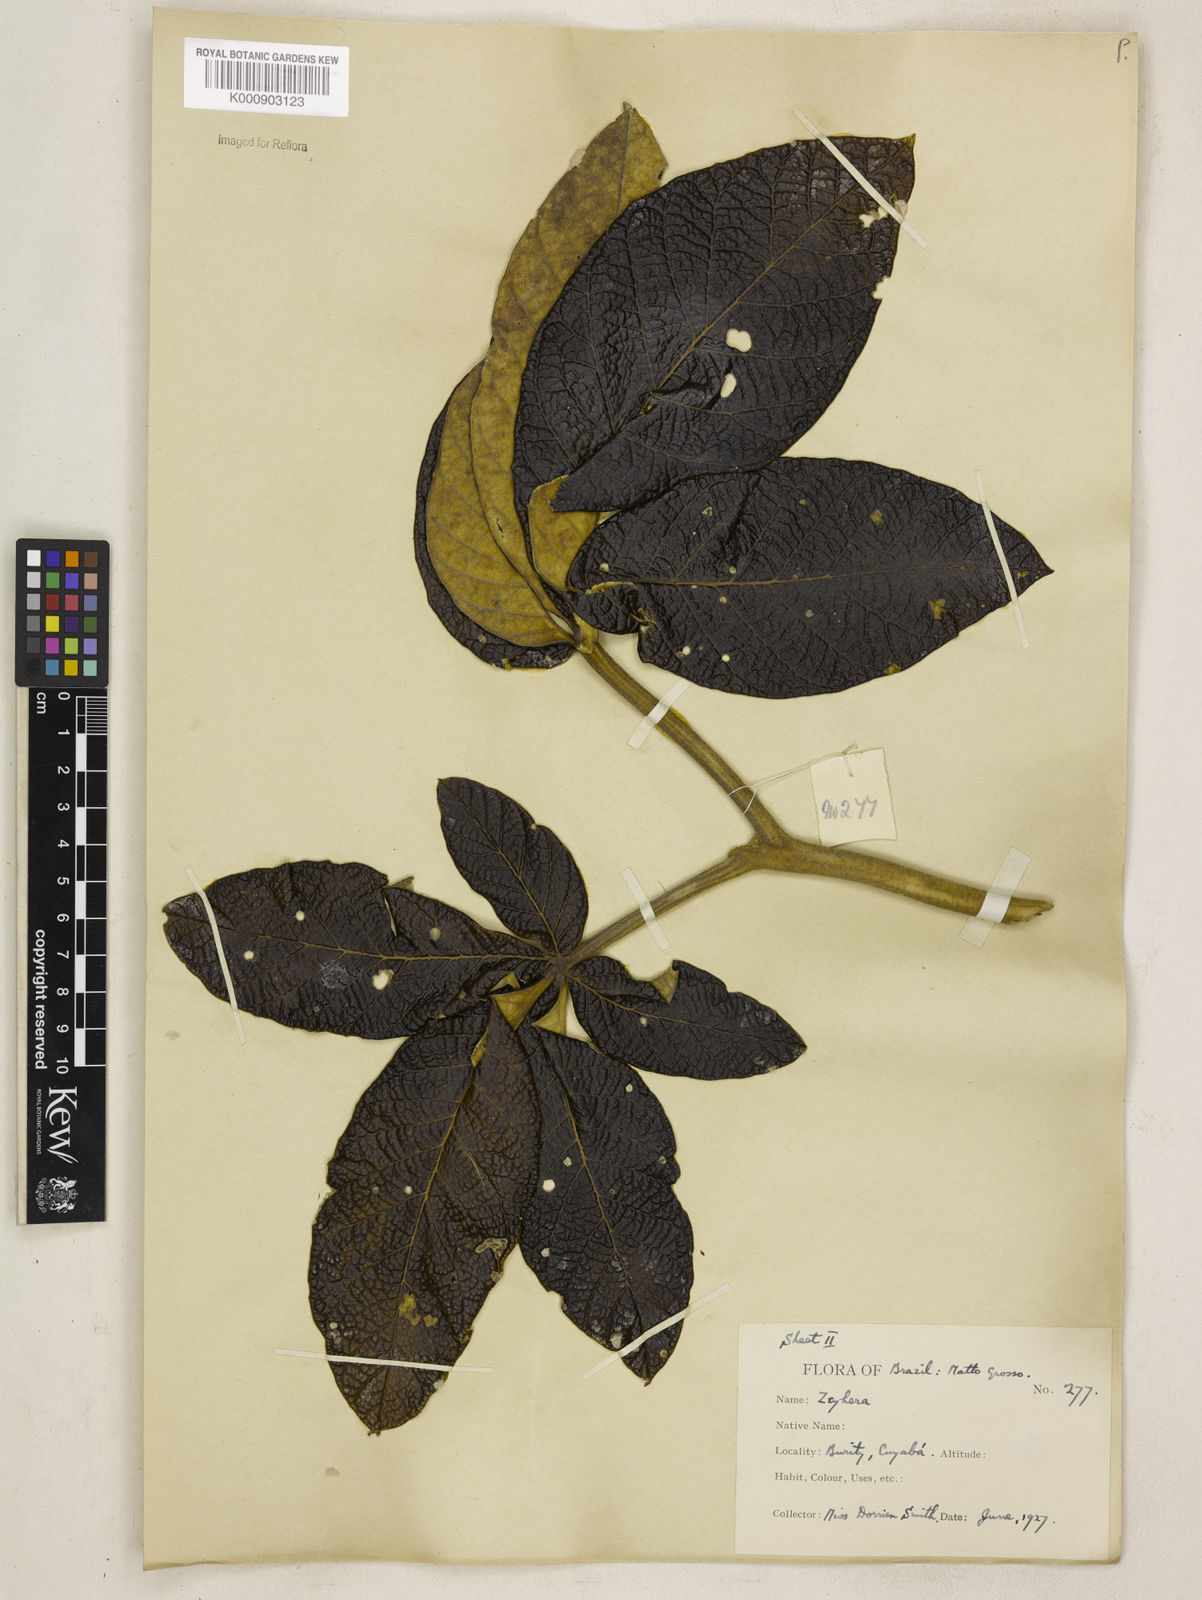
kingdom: Plantae
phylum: Tracheophyta
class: Magnoliopsida
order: Lamiales
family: Bignoniaceae
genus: Zeyheria
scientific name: Zeyheria
